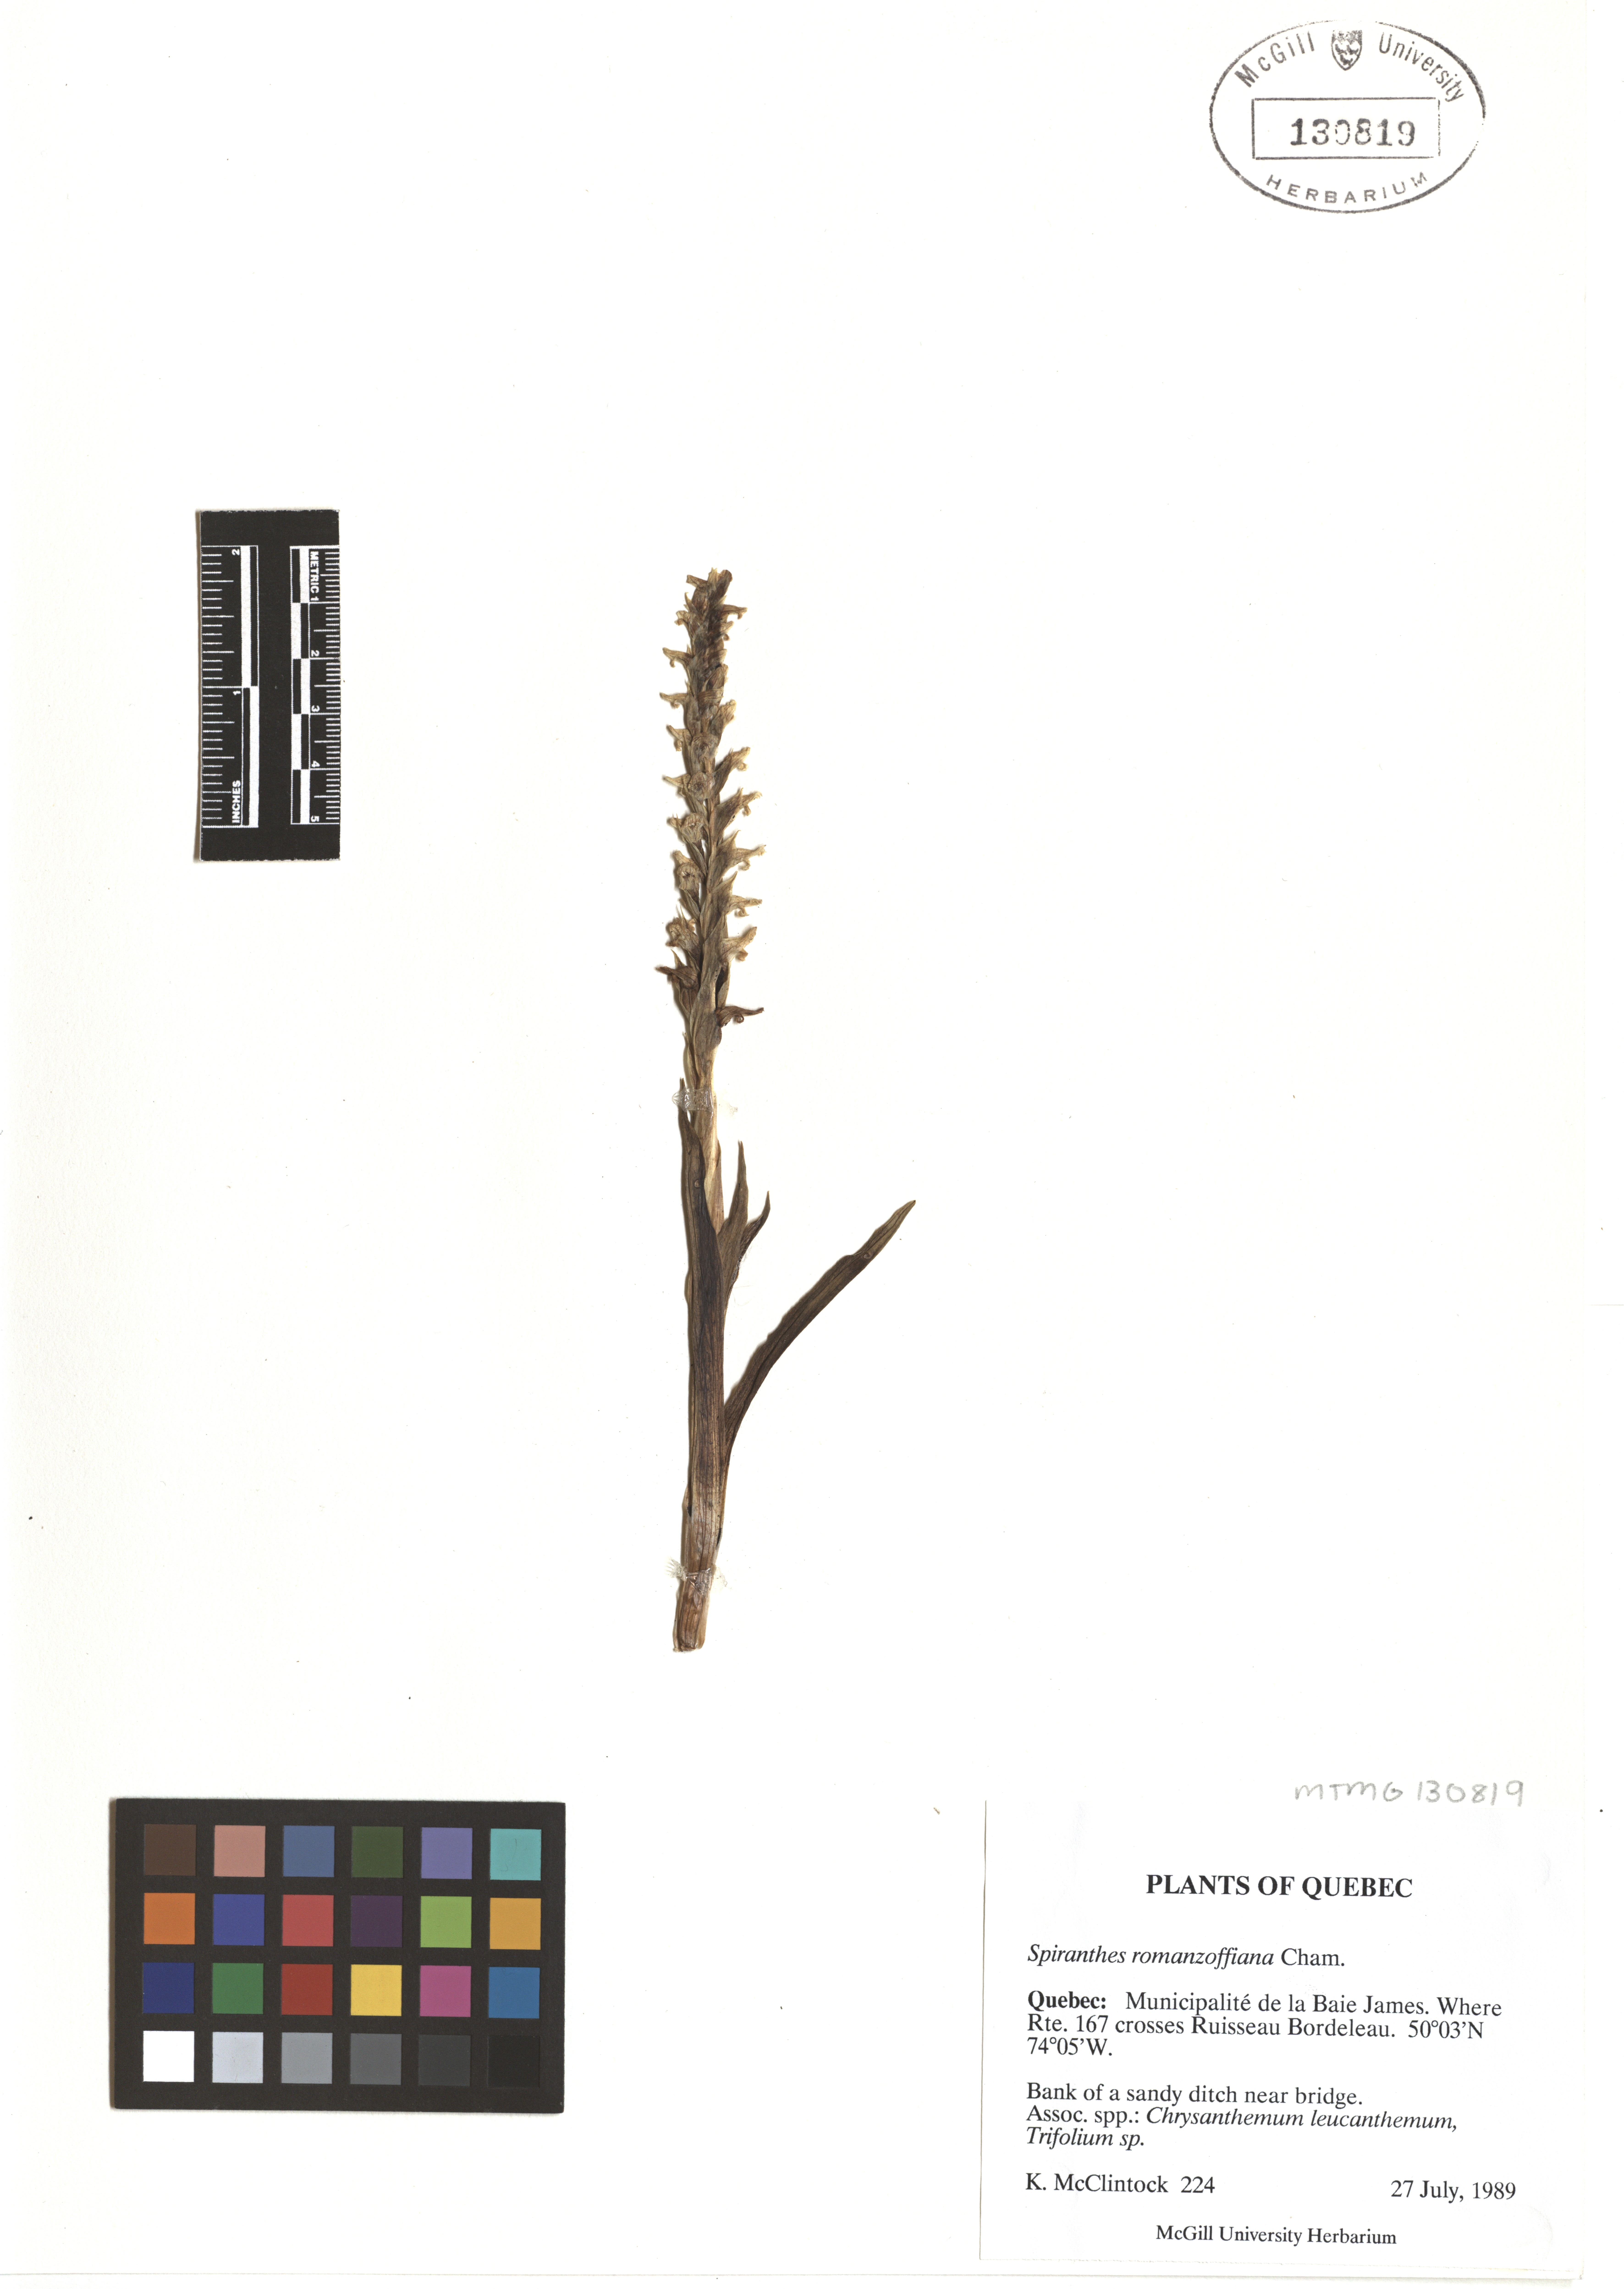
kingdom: Plantae
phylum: Tracheophyta
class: Liliopsida
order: Asparagales
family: Orchidaceae
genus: Spiranthes
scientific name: Spiranthes romanzoffiana
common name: Irish lady's-tresses
